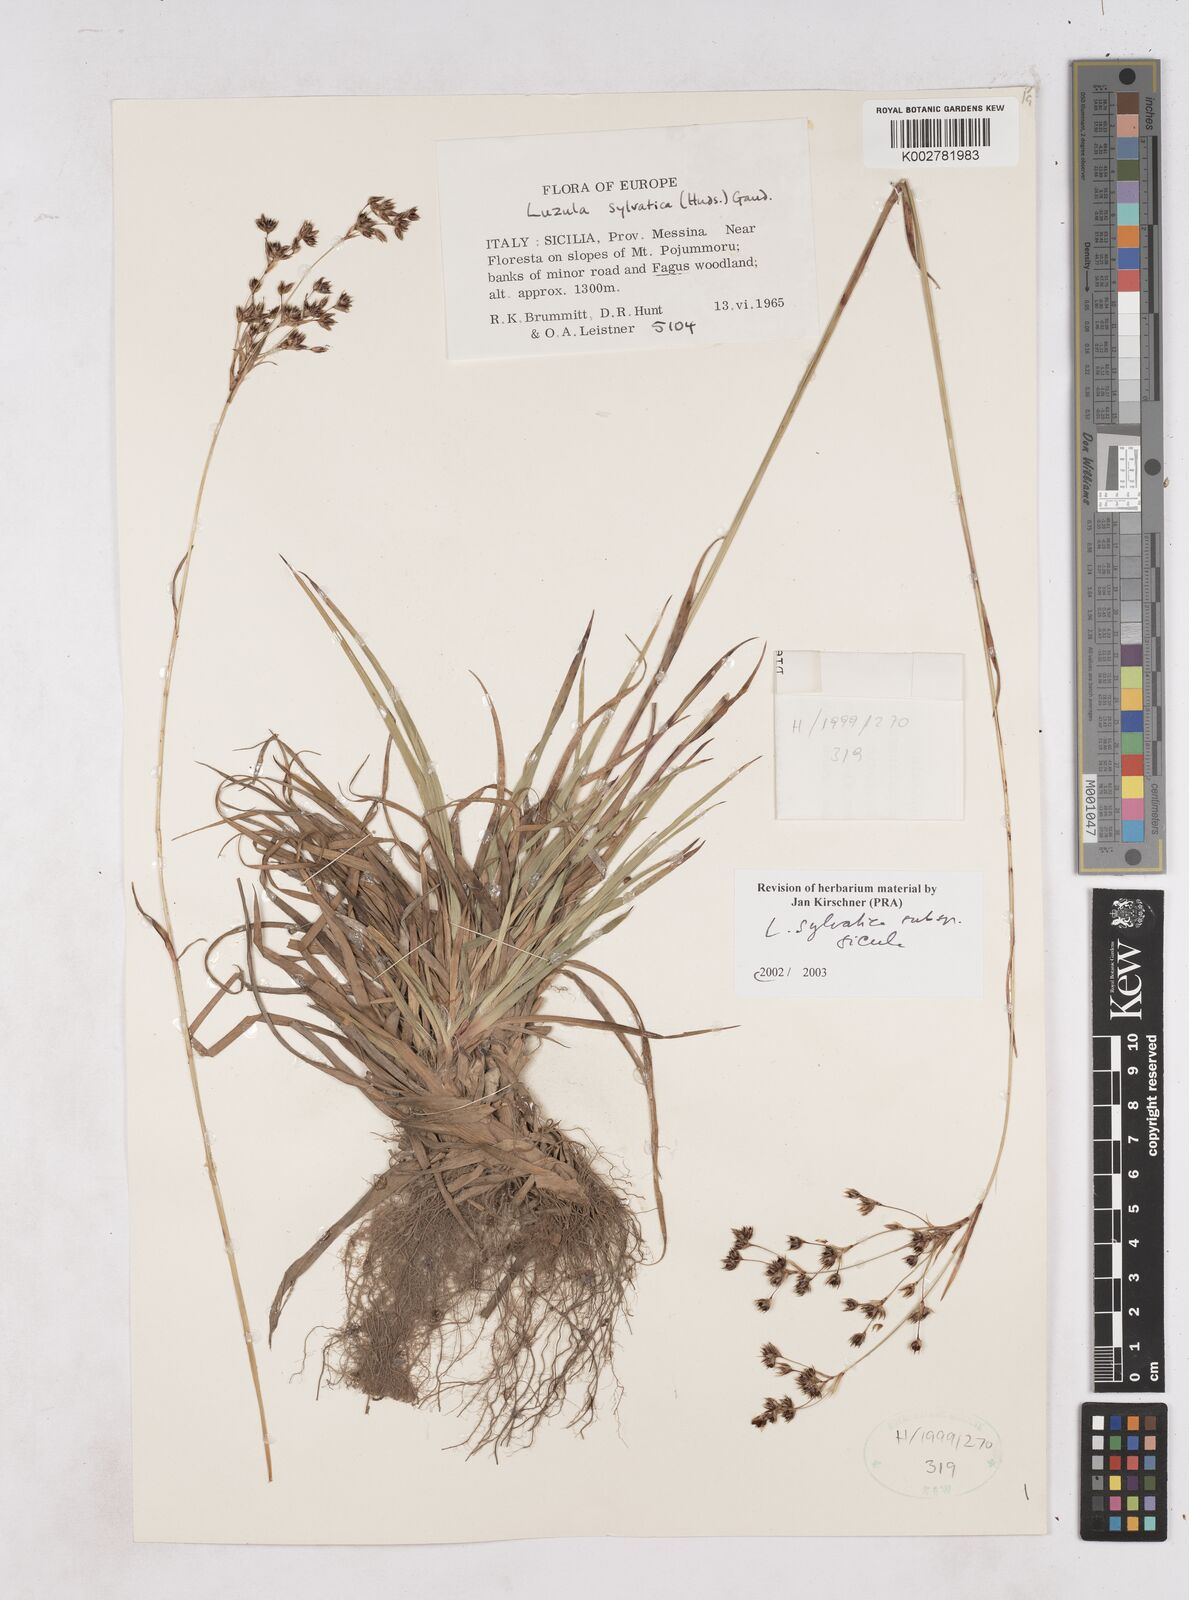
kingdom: Plantae
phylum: Tracheophyta
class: Liliopsida
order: Poales
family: Juncaceae
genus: Luzula
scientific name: Luzula sylvatica
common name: Great wood-rush
